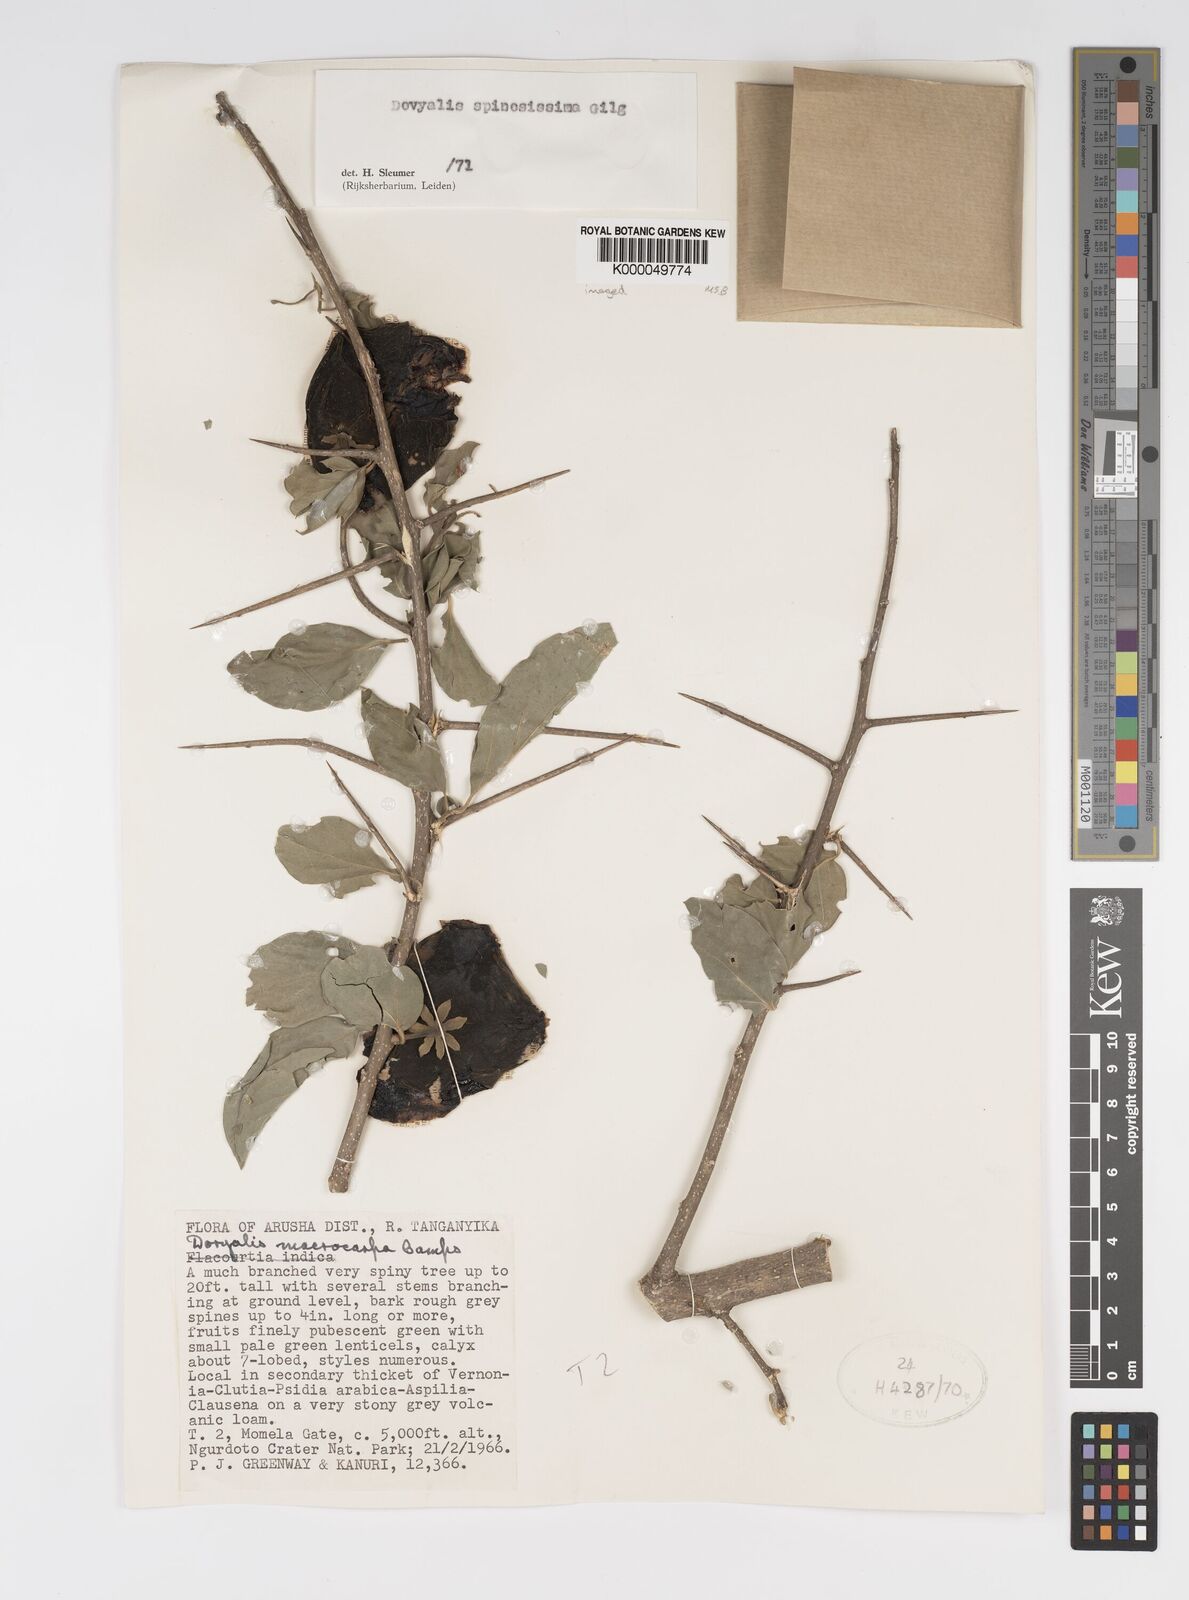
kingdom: Plantae
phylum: Tracheophyta
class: Magnoliopsida
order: Malpighiales
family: Salicaceae
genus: Dovyalis
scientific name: Dovyalis spinosissima
